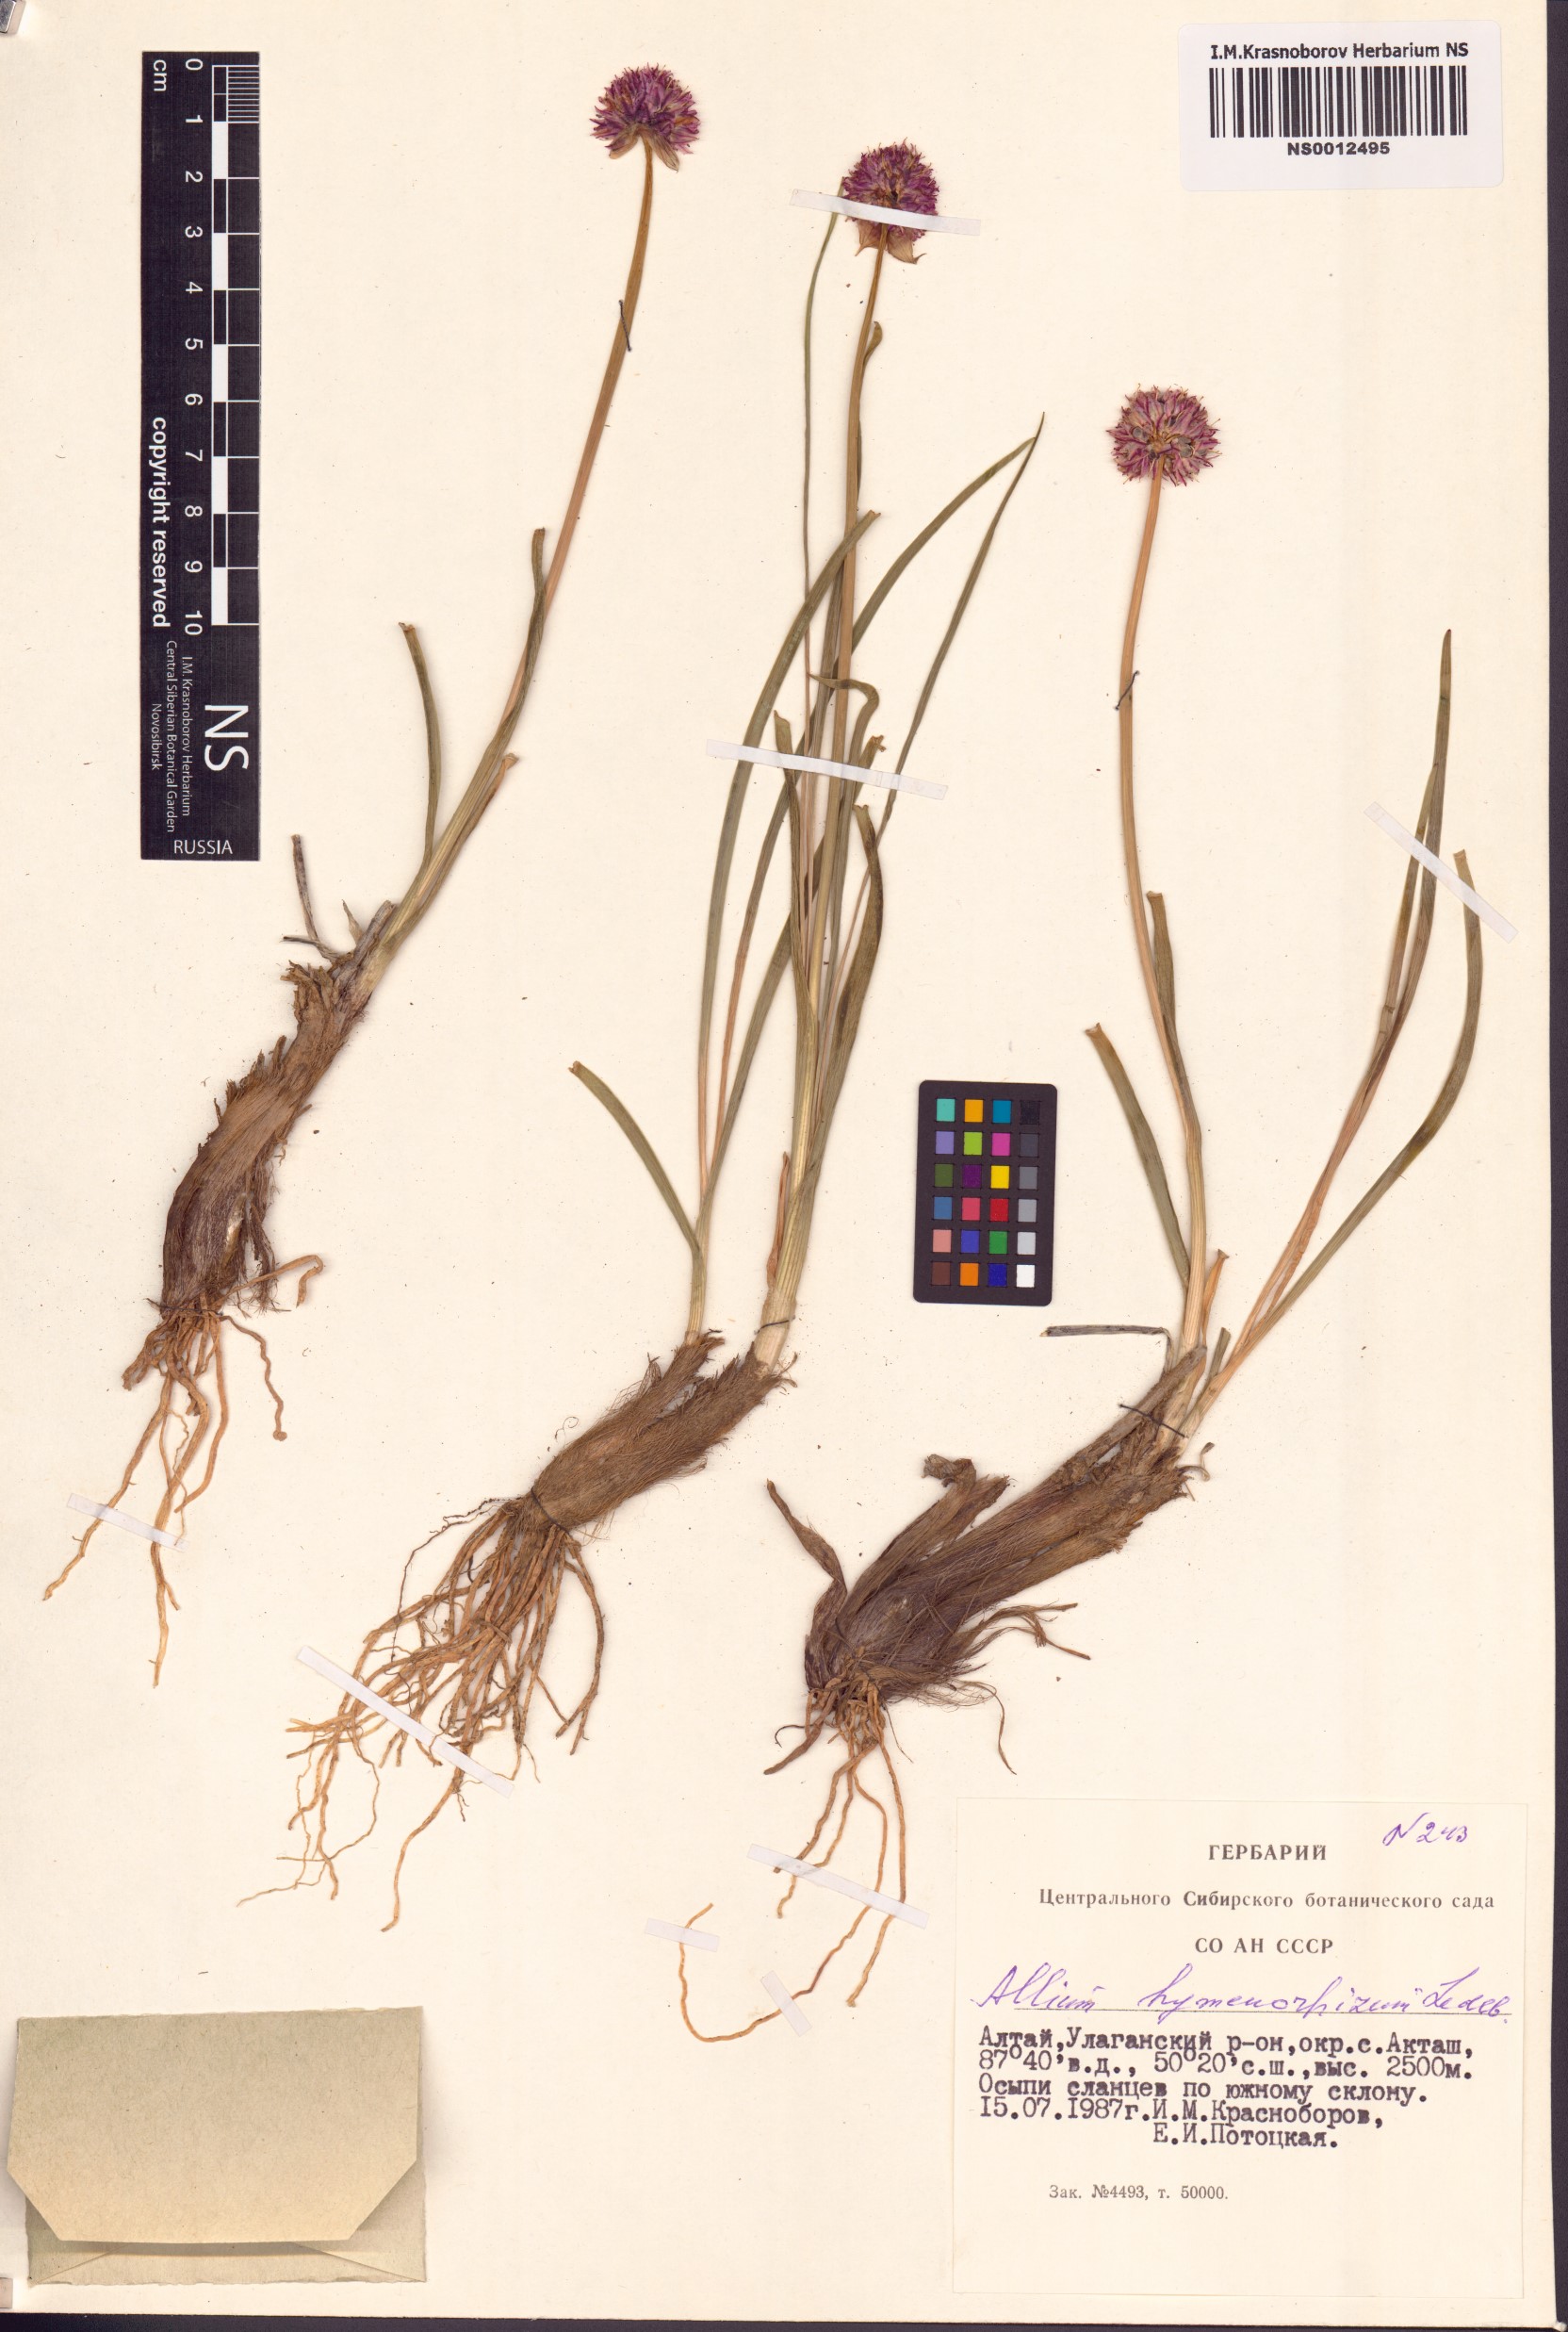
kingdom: Plantae
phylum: Tracheophyta
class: Liliopsida
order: Asparagales
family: Amaryllidaceae
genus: Allium
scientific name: Allium hymenorhizum
